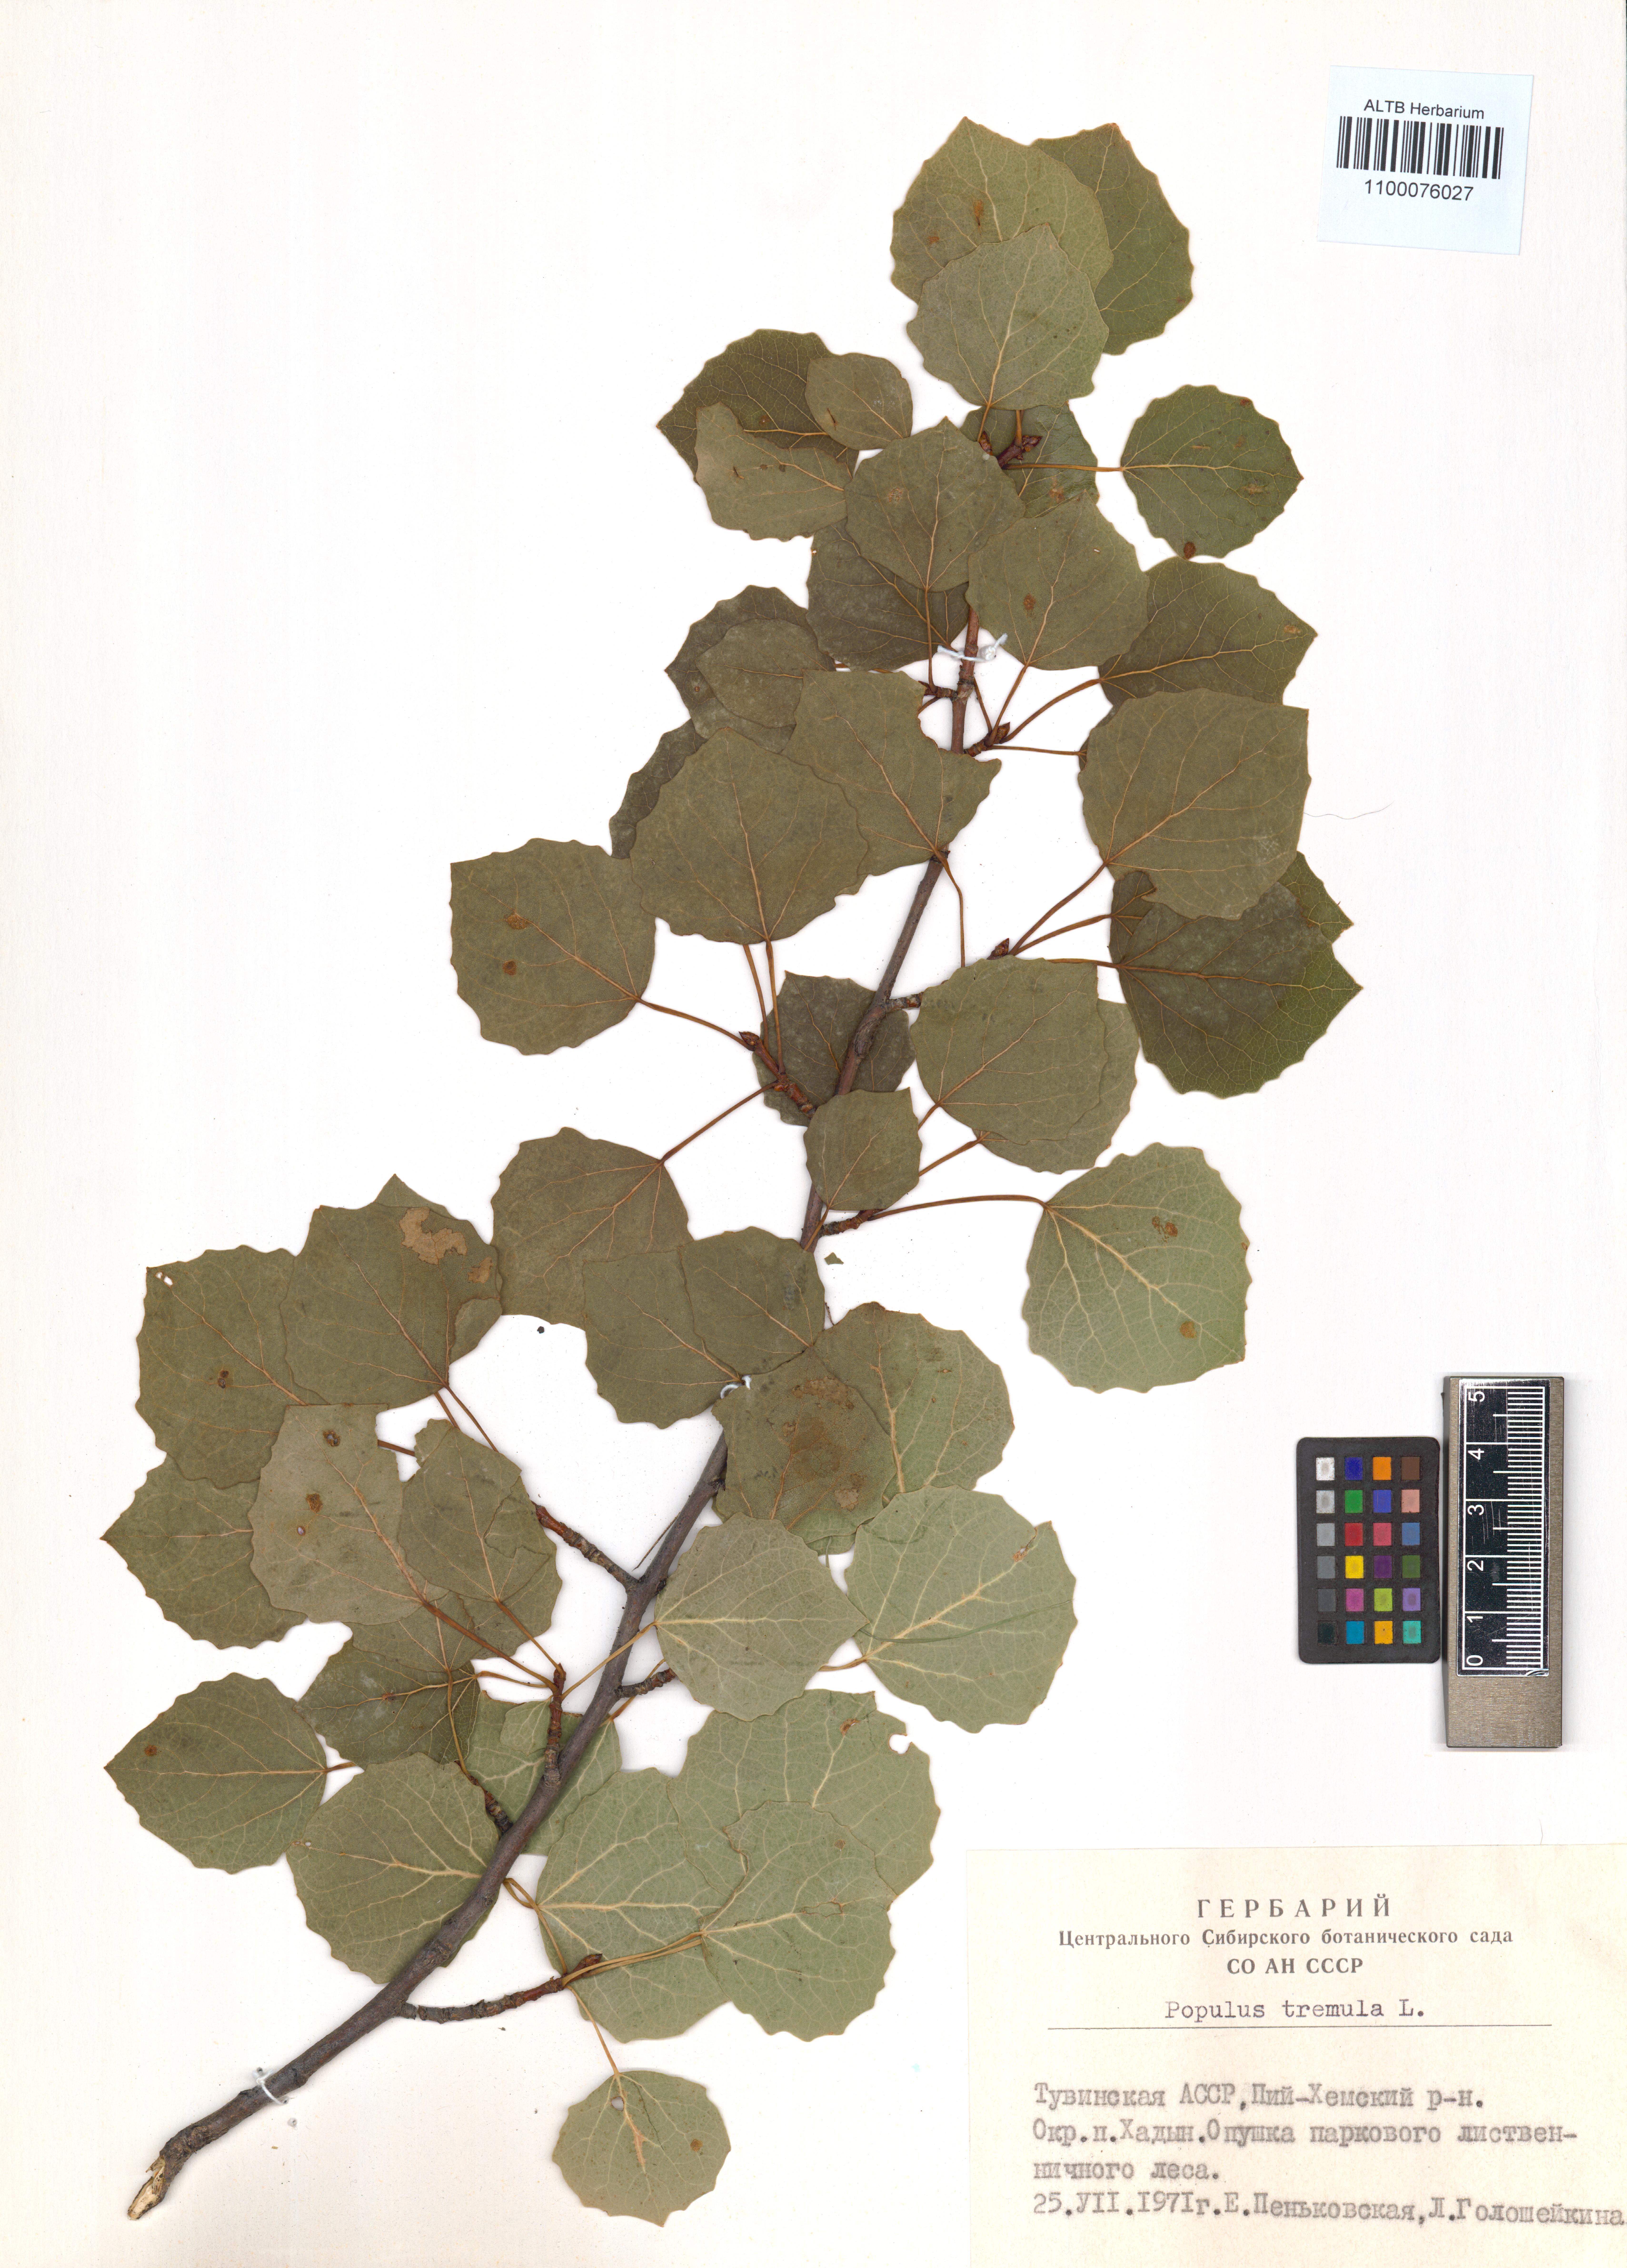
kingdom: Plantae
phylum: Tracheophyta
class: Magnoliopsida
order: Malpighiales
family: Salicaceae
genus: Populus
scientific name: Populus tremula
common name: European aspen
